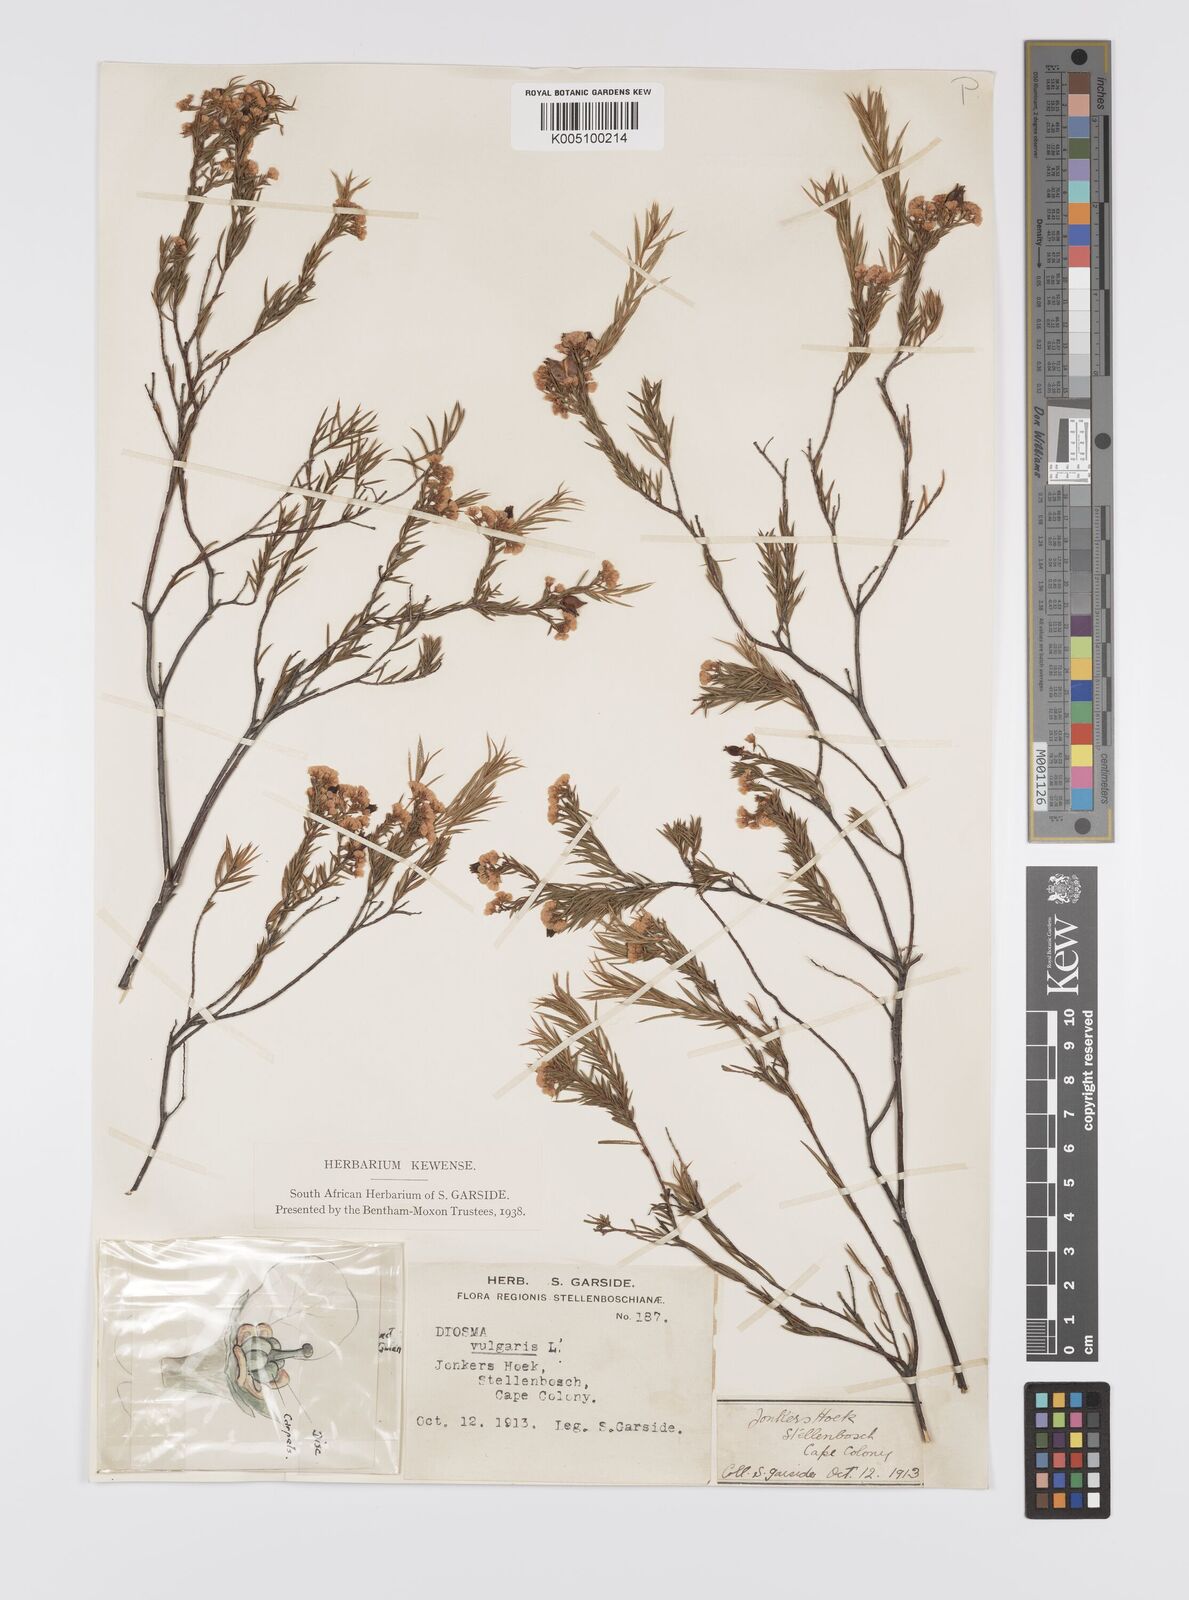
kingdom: Plantae
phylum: Tracheophyta
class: Magnoliopsida
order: Sapindales
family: Rutaceae
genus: Diosma
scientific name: Diosma hirsuta
